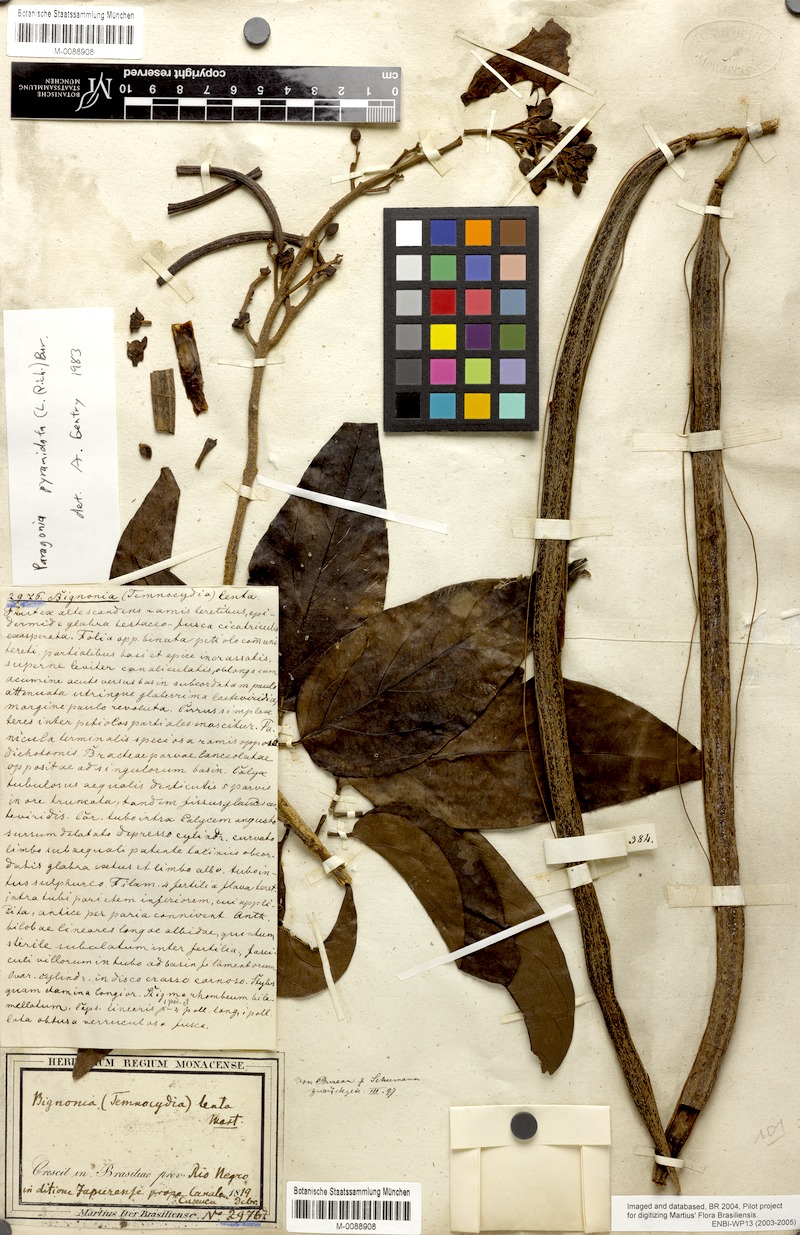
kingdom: Plantae
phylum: Tracheophyta
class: Magnoliopsida
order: Lamiales
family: Bignoniaceae
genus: Tanaecium
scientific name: Tanaecium pyramidatum
